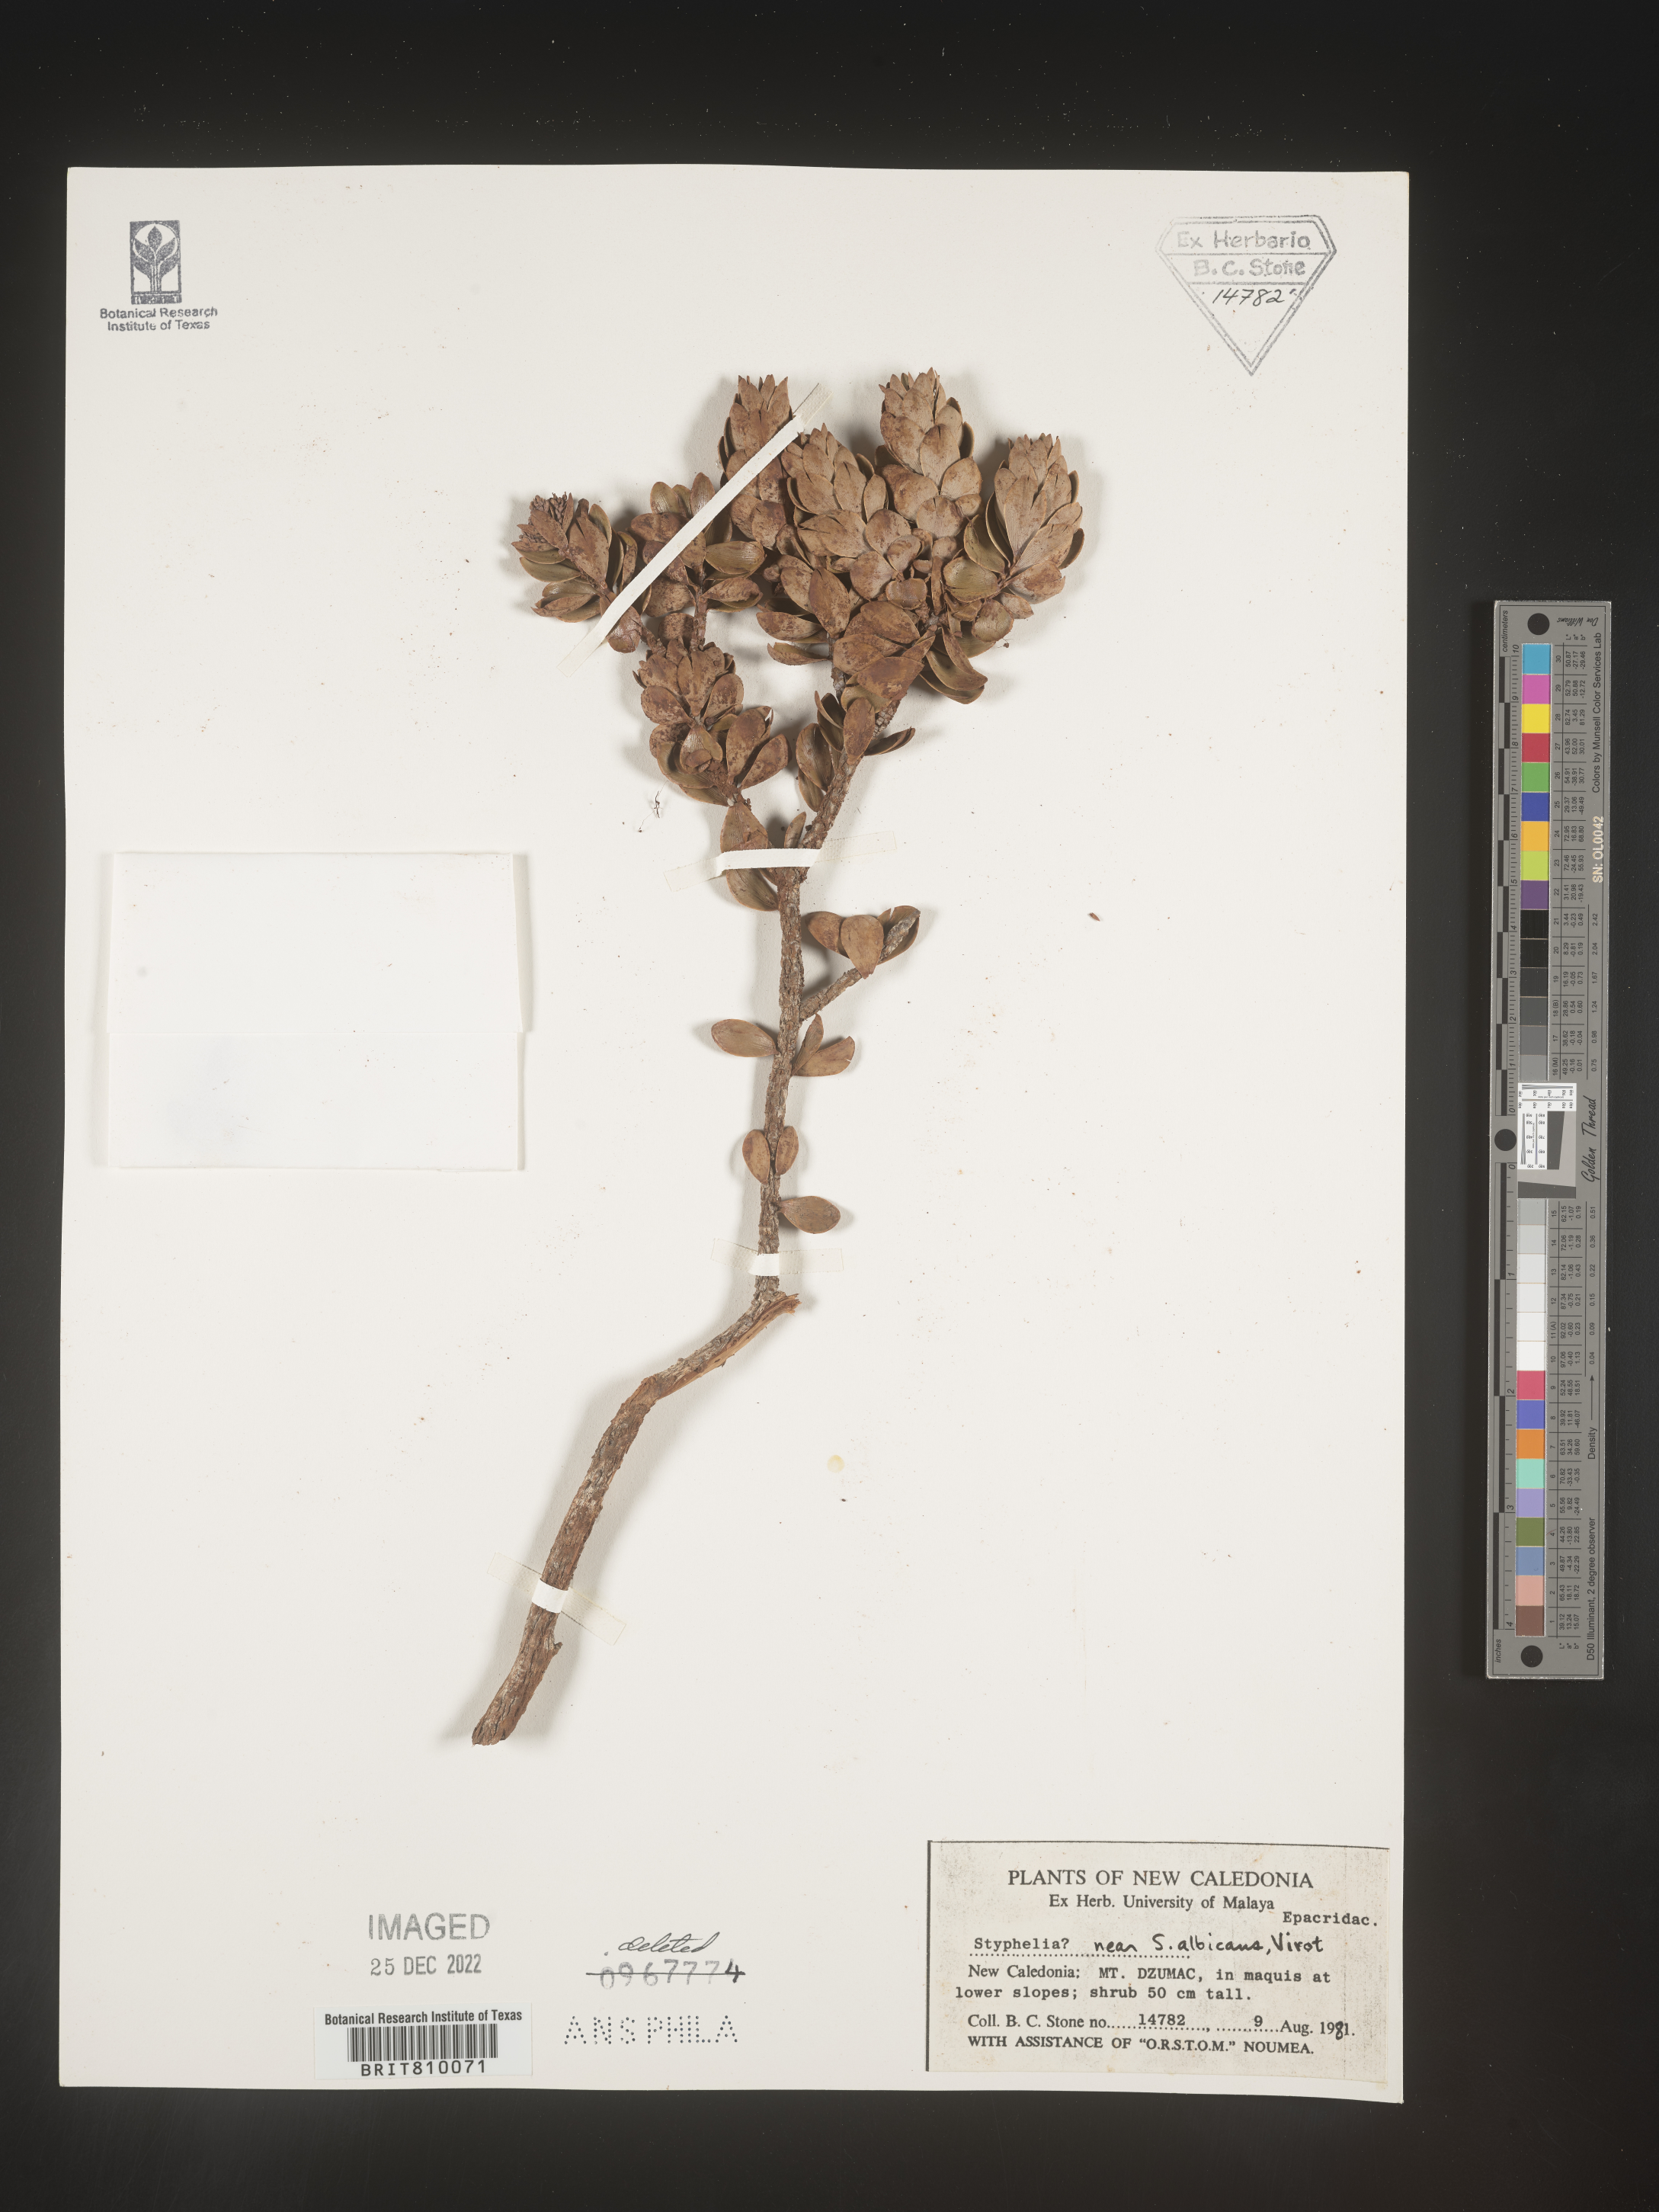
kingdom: Plantae
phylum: Tracheophyta
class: Magnoliopsida
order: Ericales
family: Ericaceae
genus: Styphelia
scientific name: Styphelia
